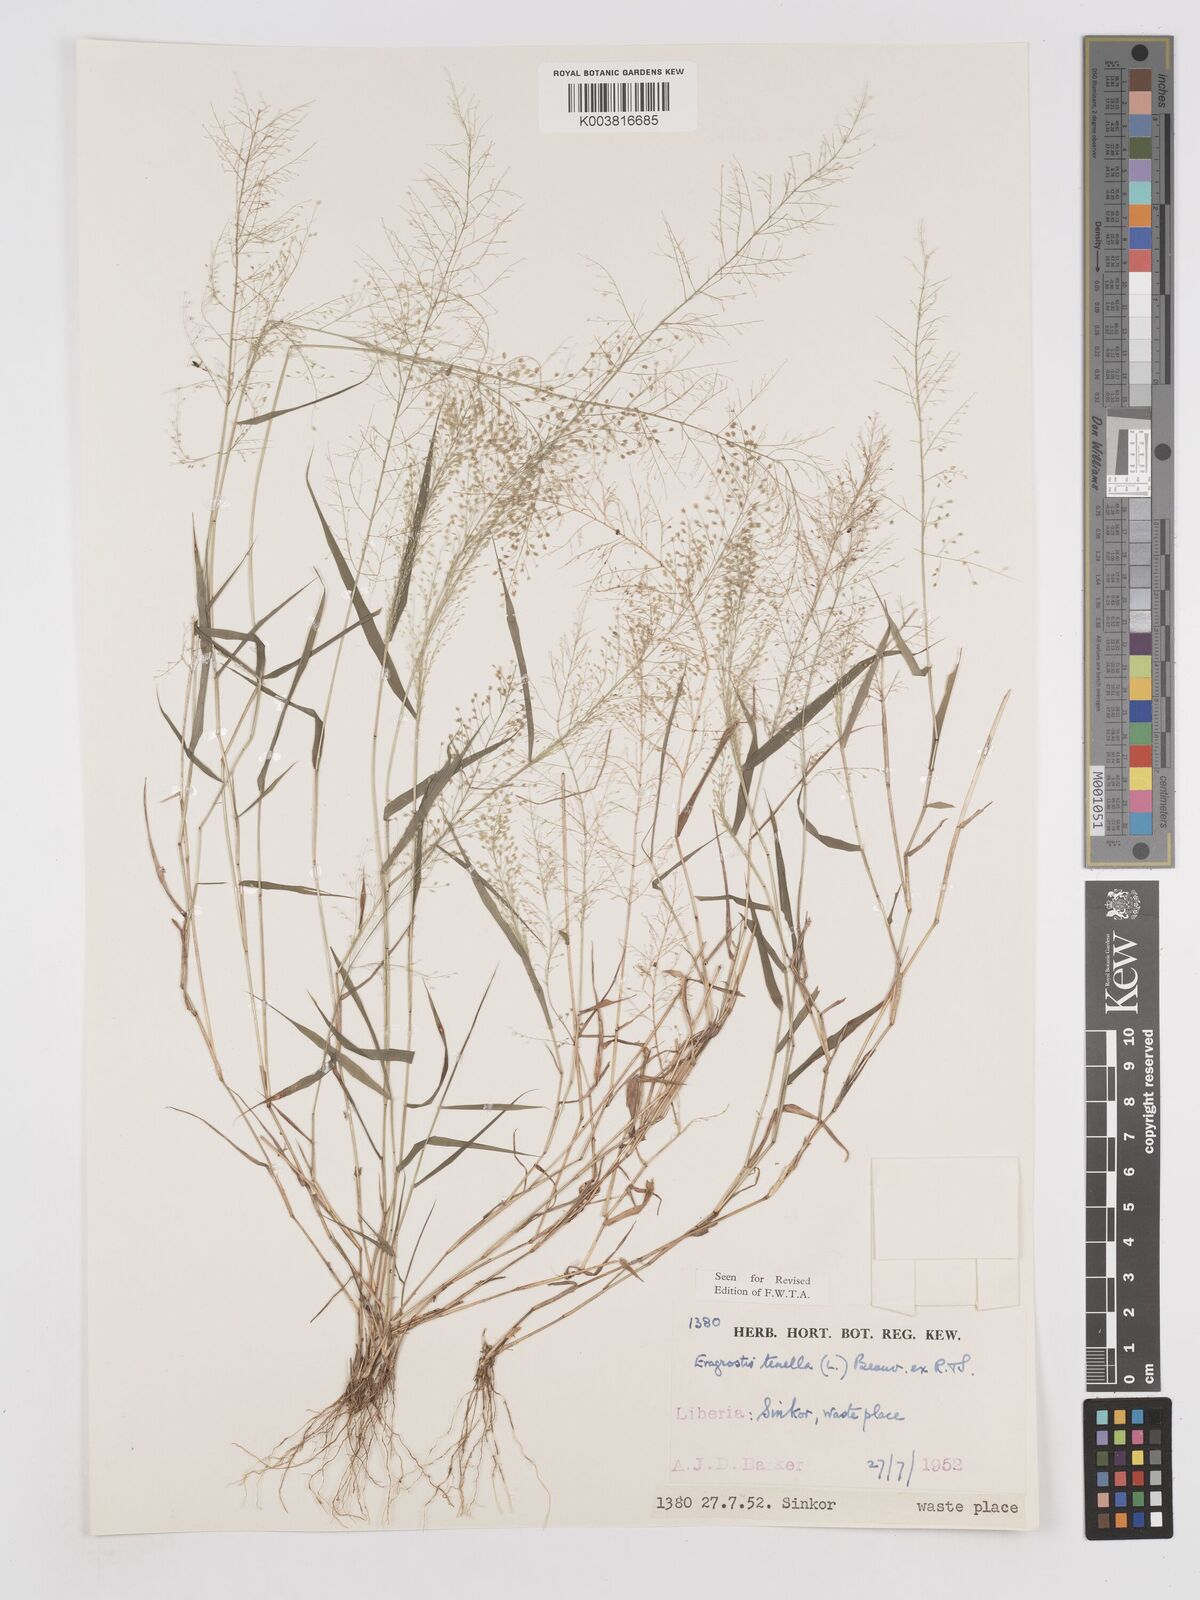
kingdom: Plantae
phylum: Tracheophyta
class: Liliopsida
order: Poales
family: Poaceae
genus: Eragrostis
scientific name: Eragrostis tenella
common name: Japanese lovegrass
